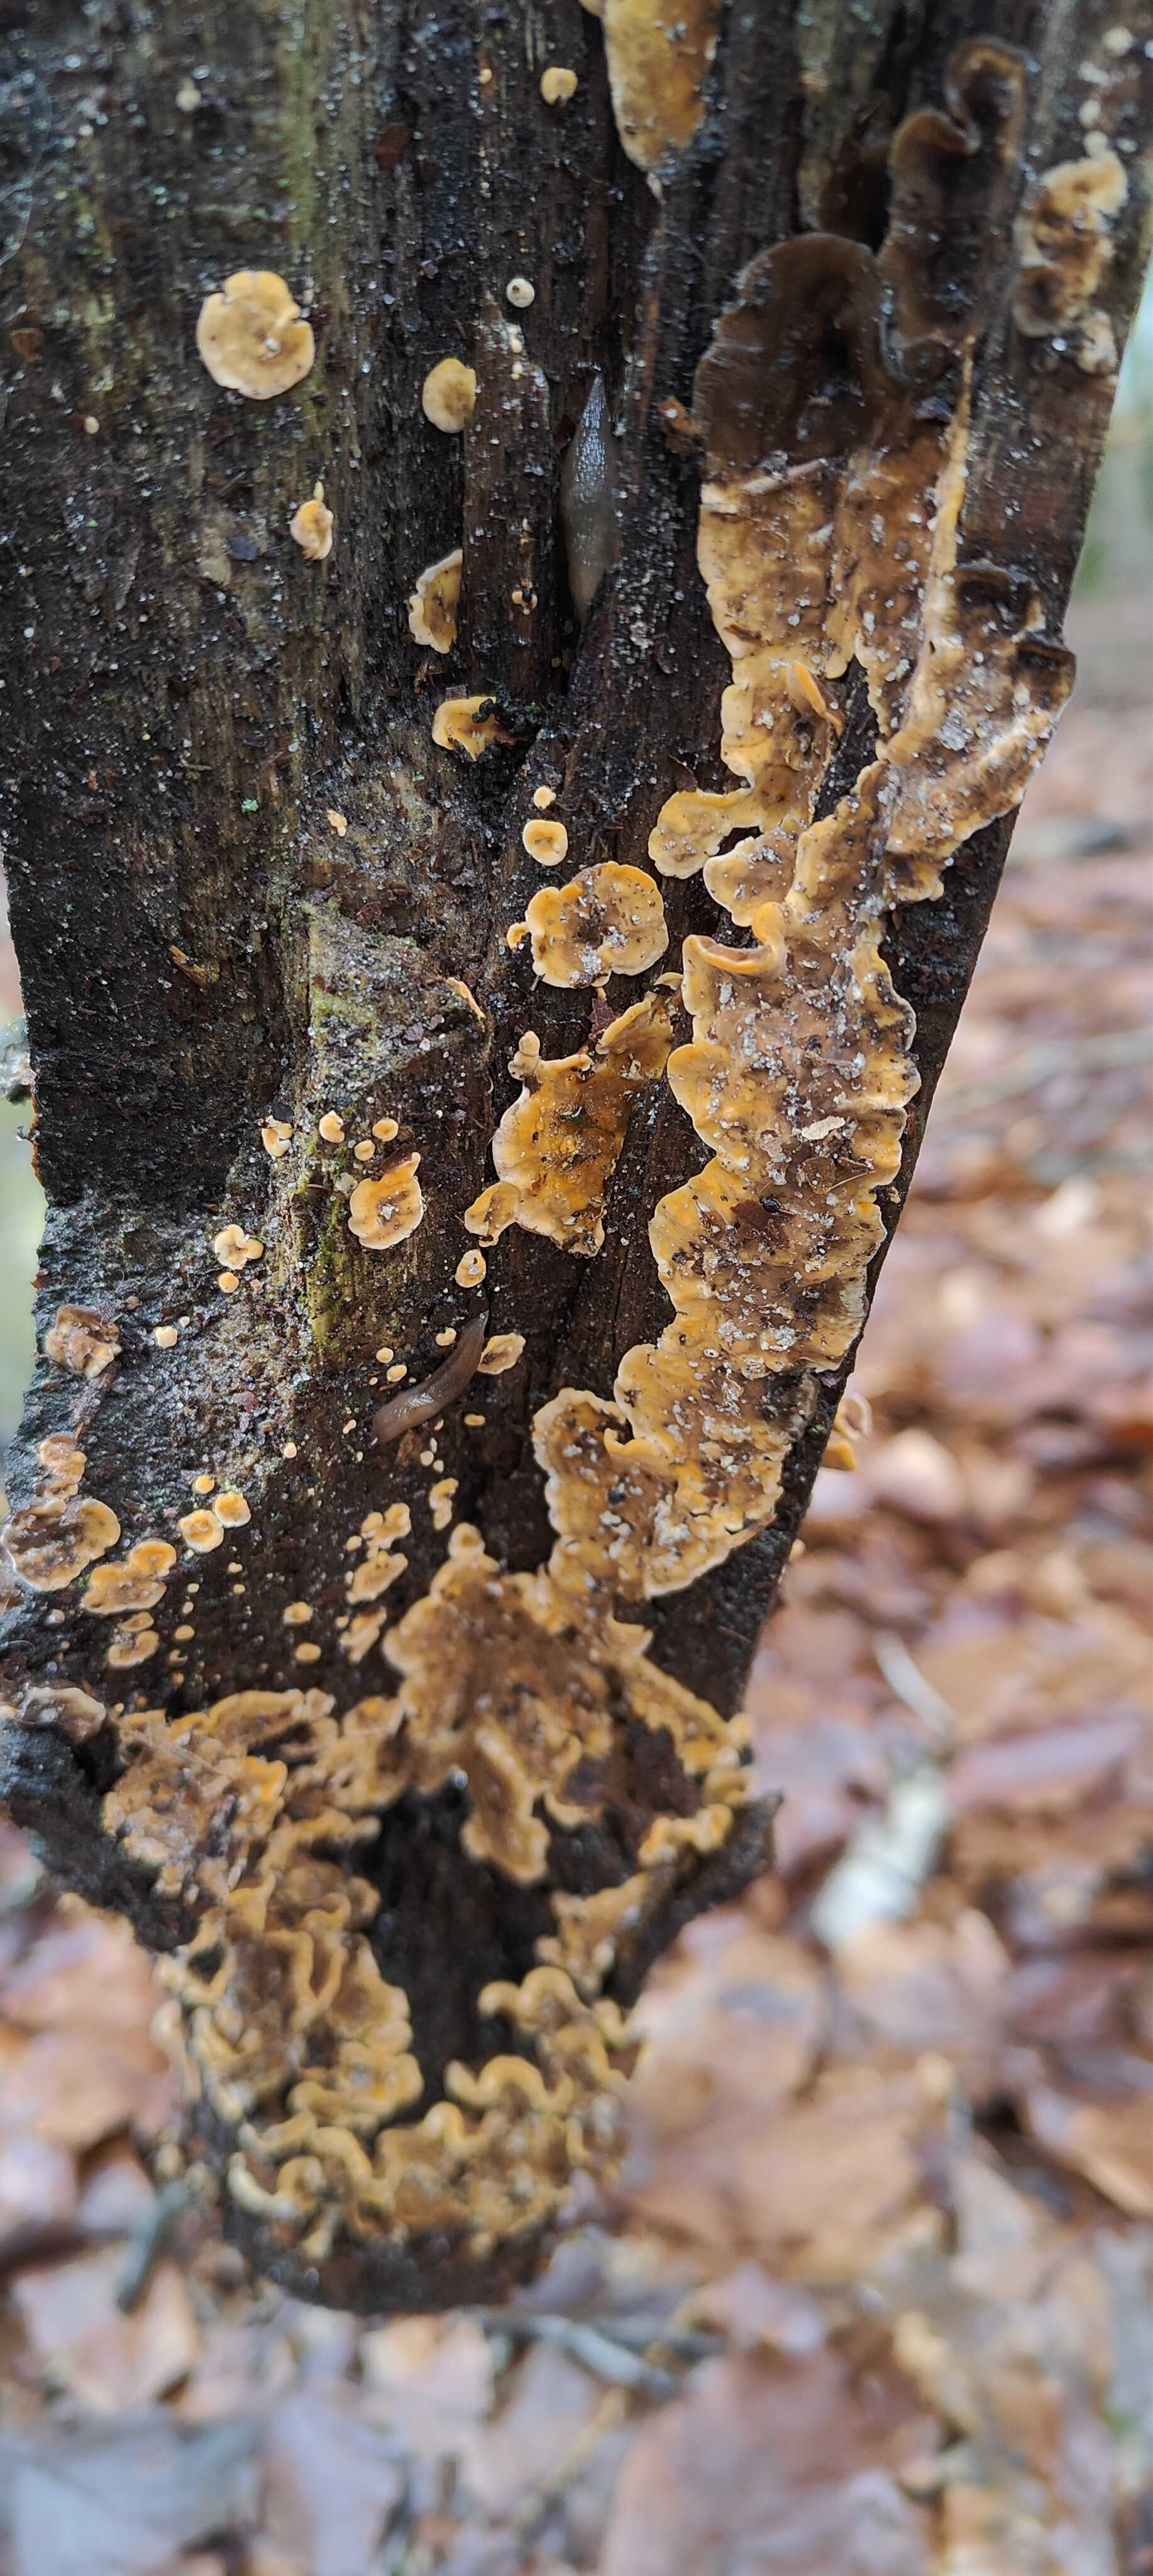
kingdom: Fungi
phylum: Basidiomycota
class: Agaricomycetes
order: Russulales
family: Stereaceae
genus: Stereum
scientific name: Stereum hirsutum
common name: håret lædersvamp
